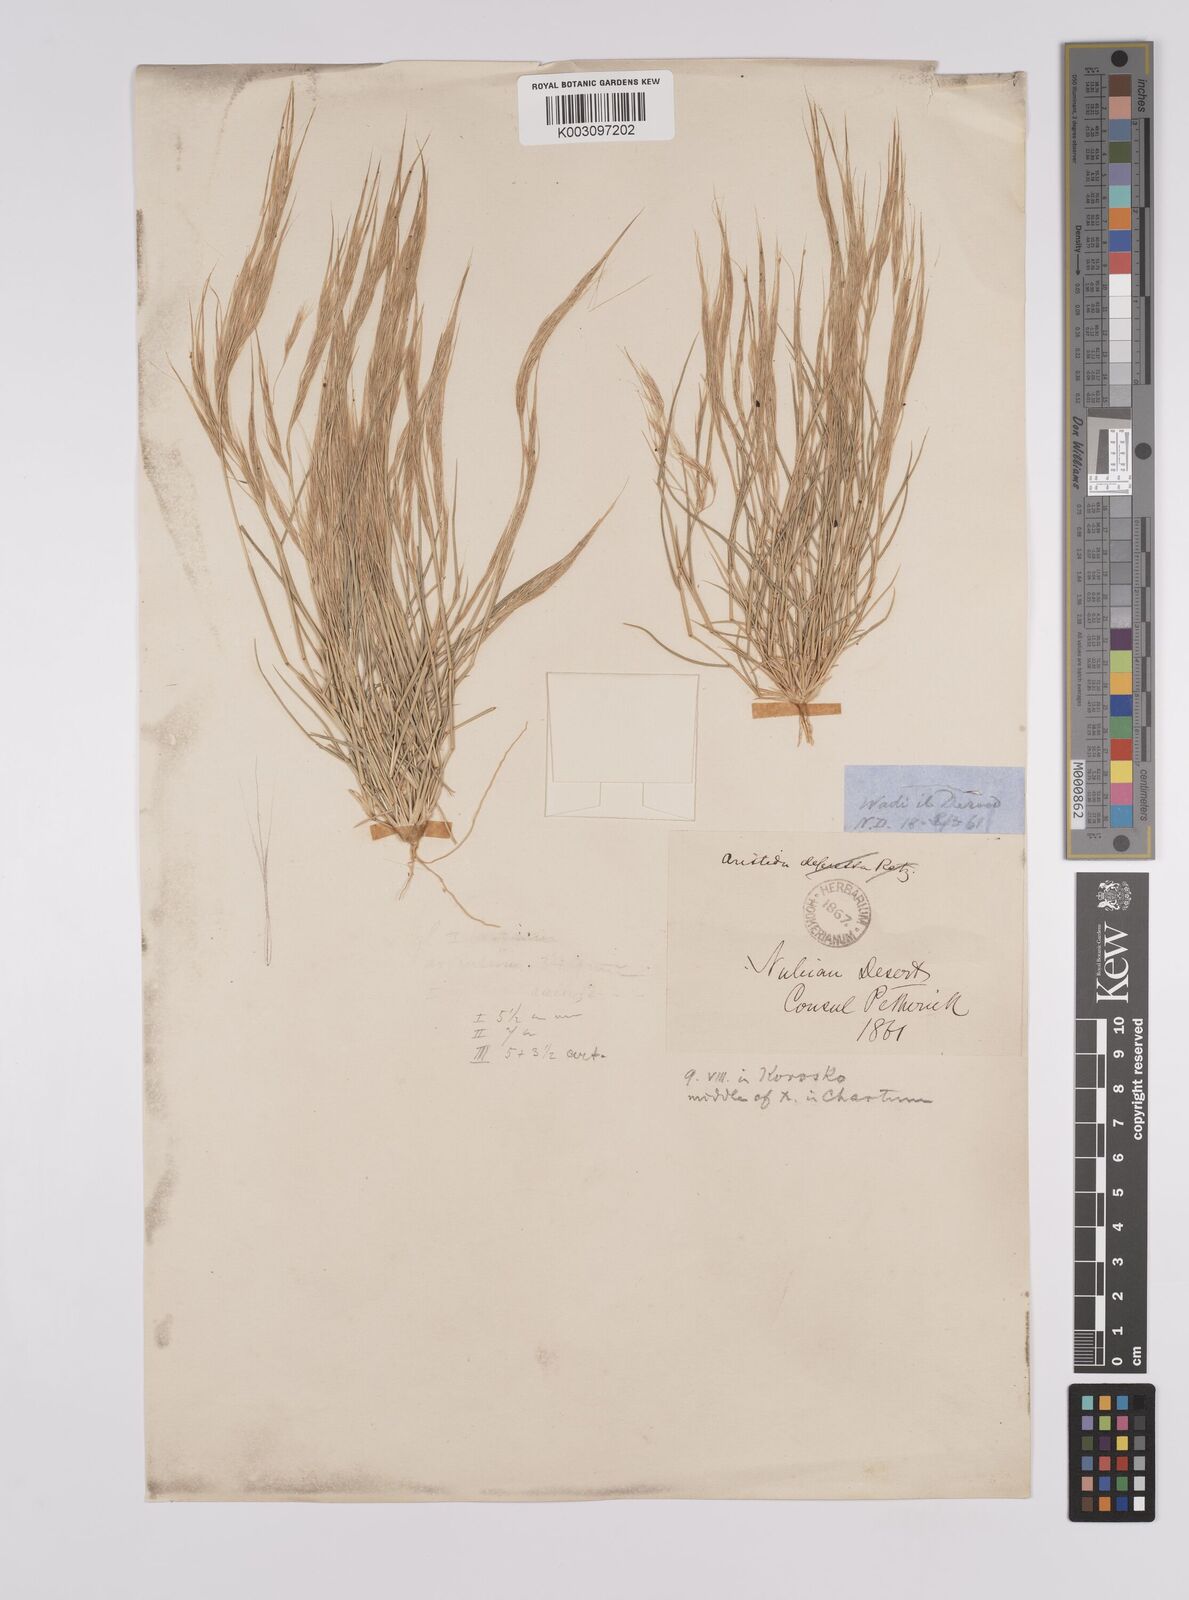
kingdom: Plantae
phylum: Tracheophyta
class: Liliopsida
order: Poales
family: Poaceae
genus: Aristida
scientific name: Aristida mutabilis
